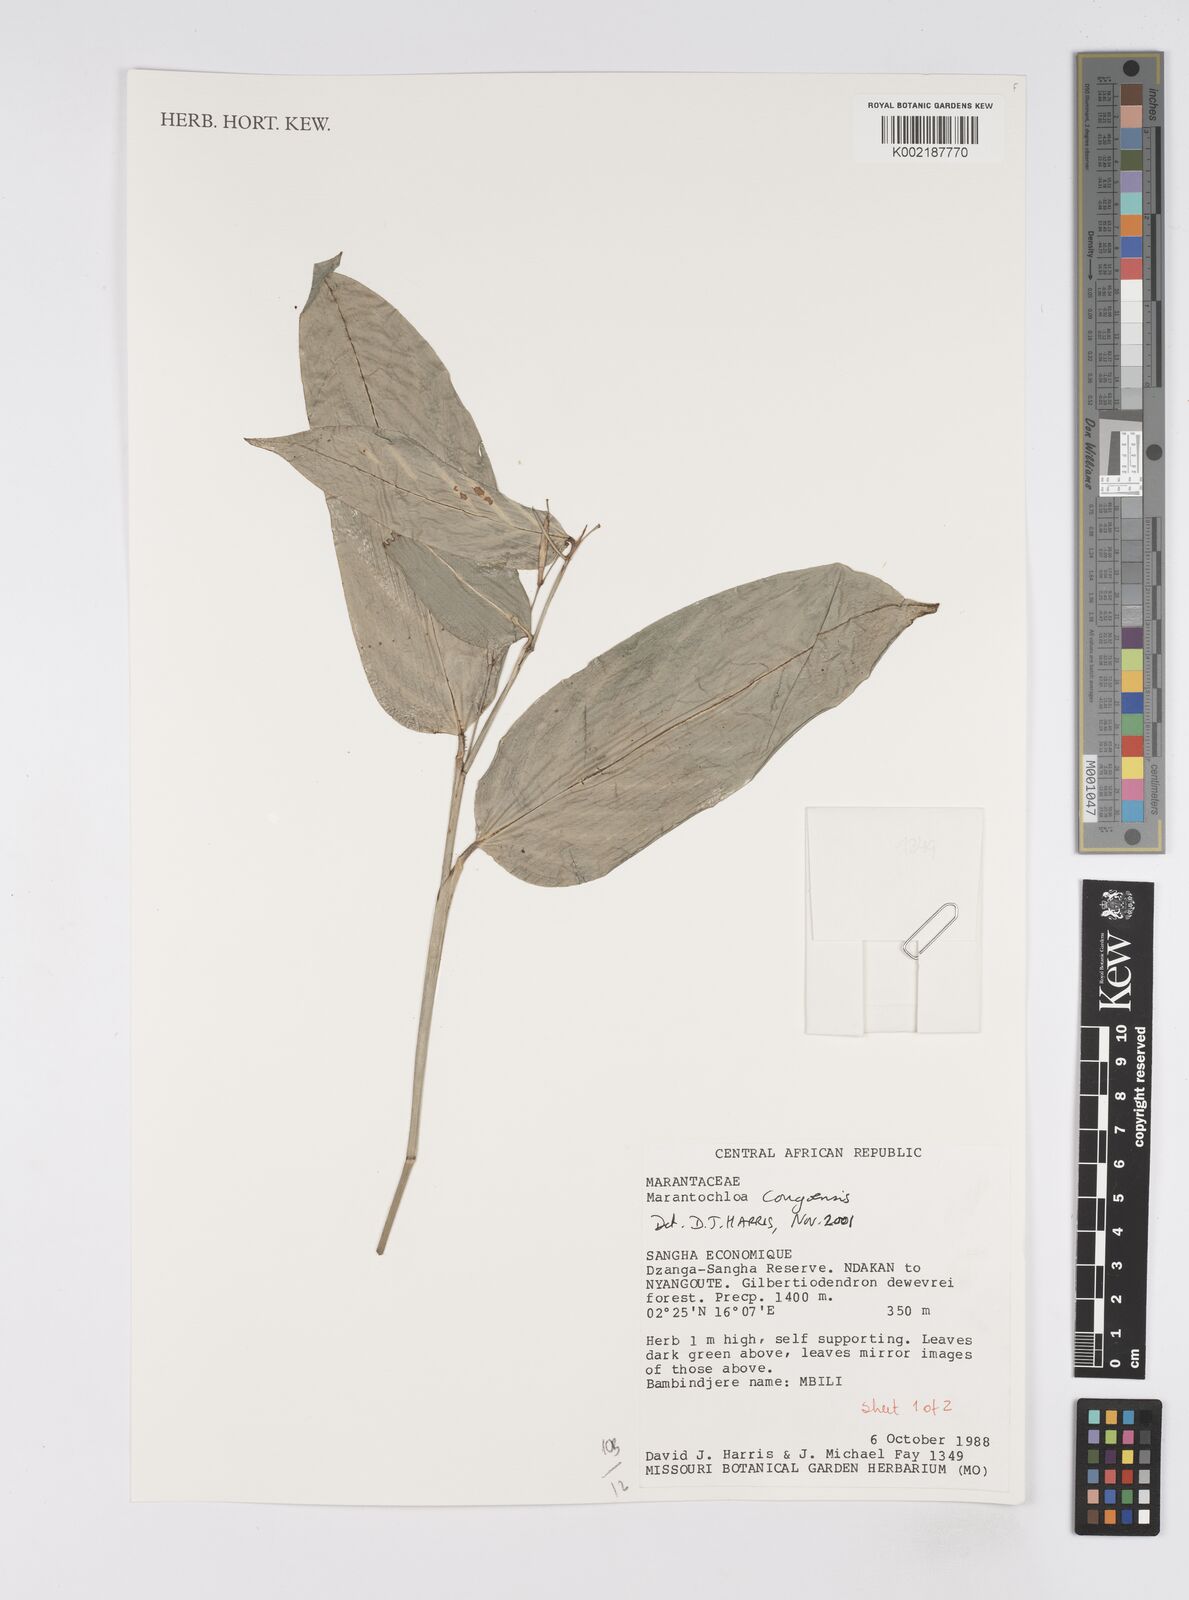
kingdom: Plantae
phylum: Tracheophyta
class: Liliopsida
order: Zingiberales
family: Marantaceae
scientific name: Marantaceae
